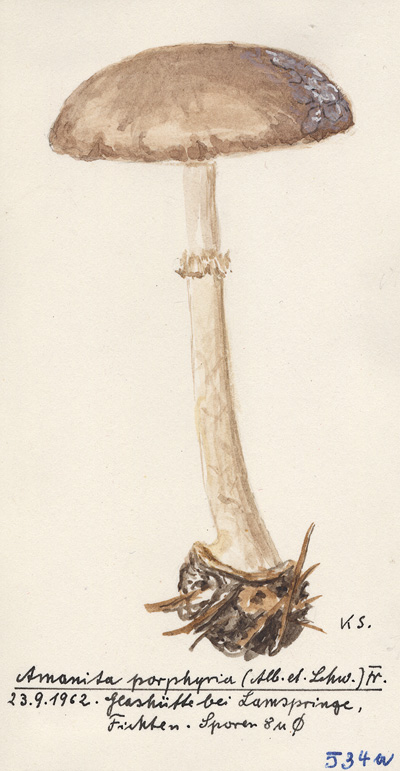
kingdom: Plantae
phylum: Tracheophyta
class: Pinopsida
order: Pinales
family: Pinaceae
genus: Picea
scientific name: Picea abies
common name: Norway spruce
